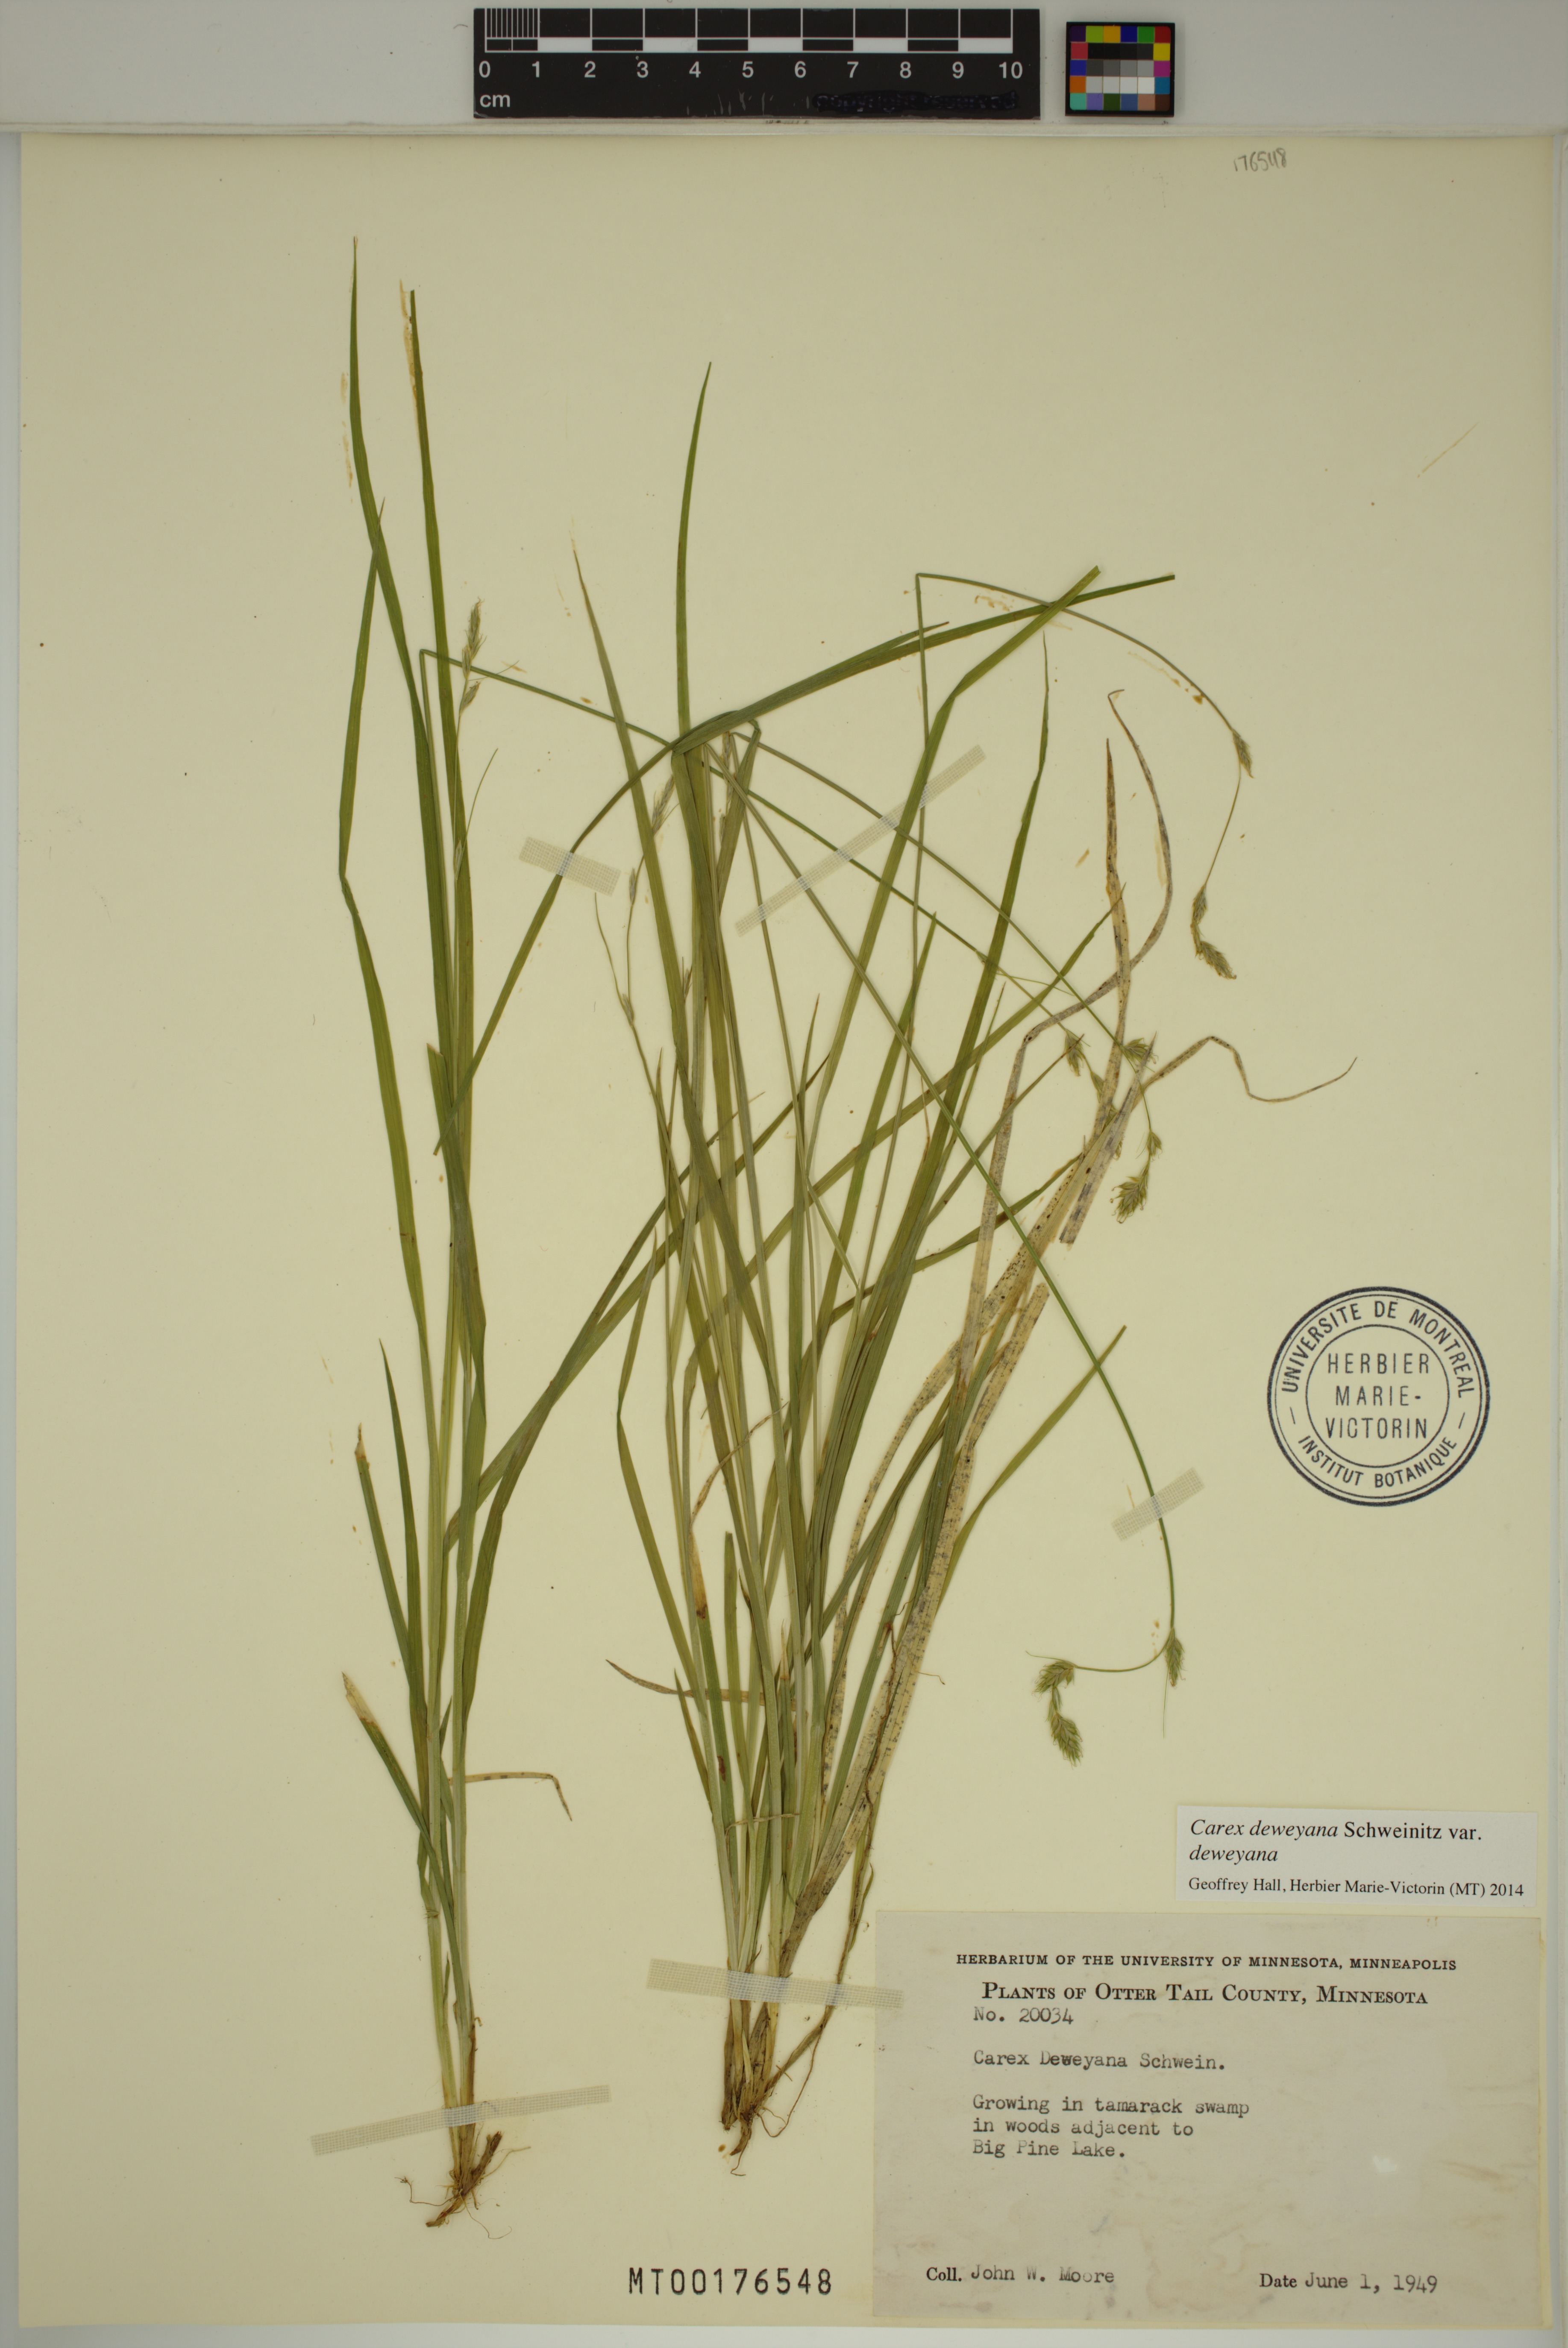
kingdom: Plantae
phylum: Tracheophyta
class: Liliopsida
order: Poales
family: Cyperaceae
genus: Carex
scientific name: Carex deweyana
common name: Dewey's sedge
